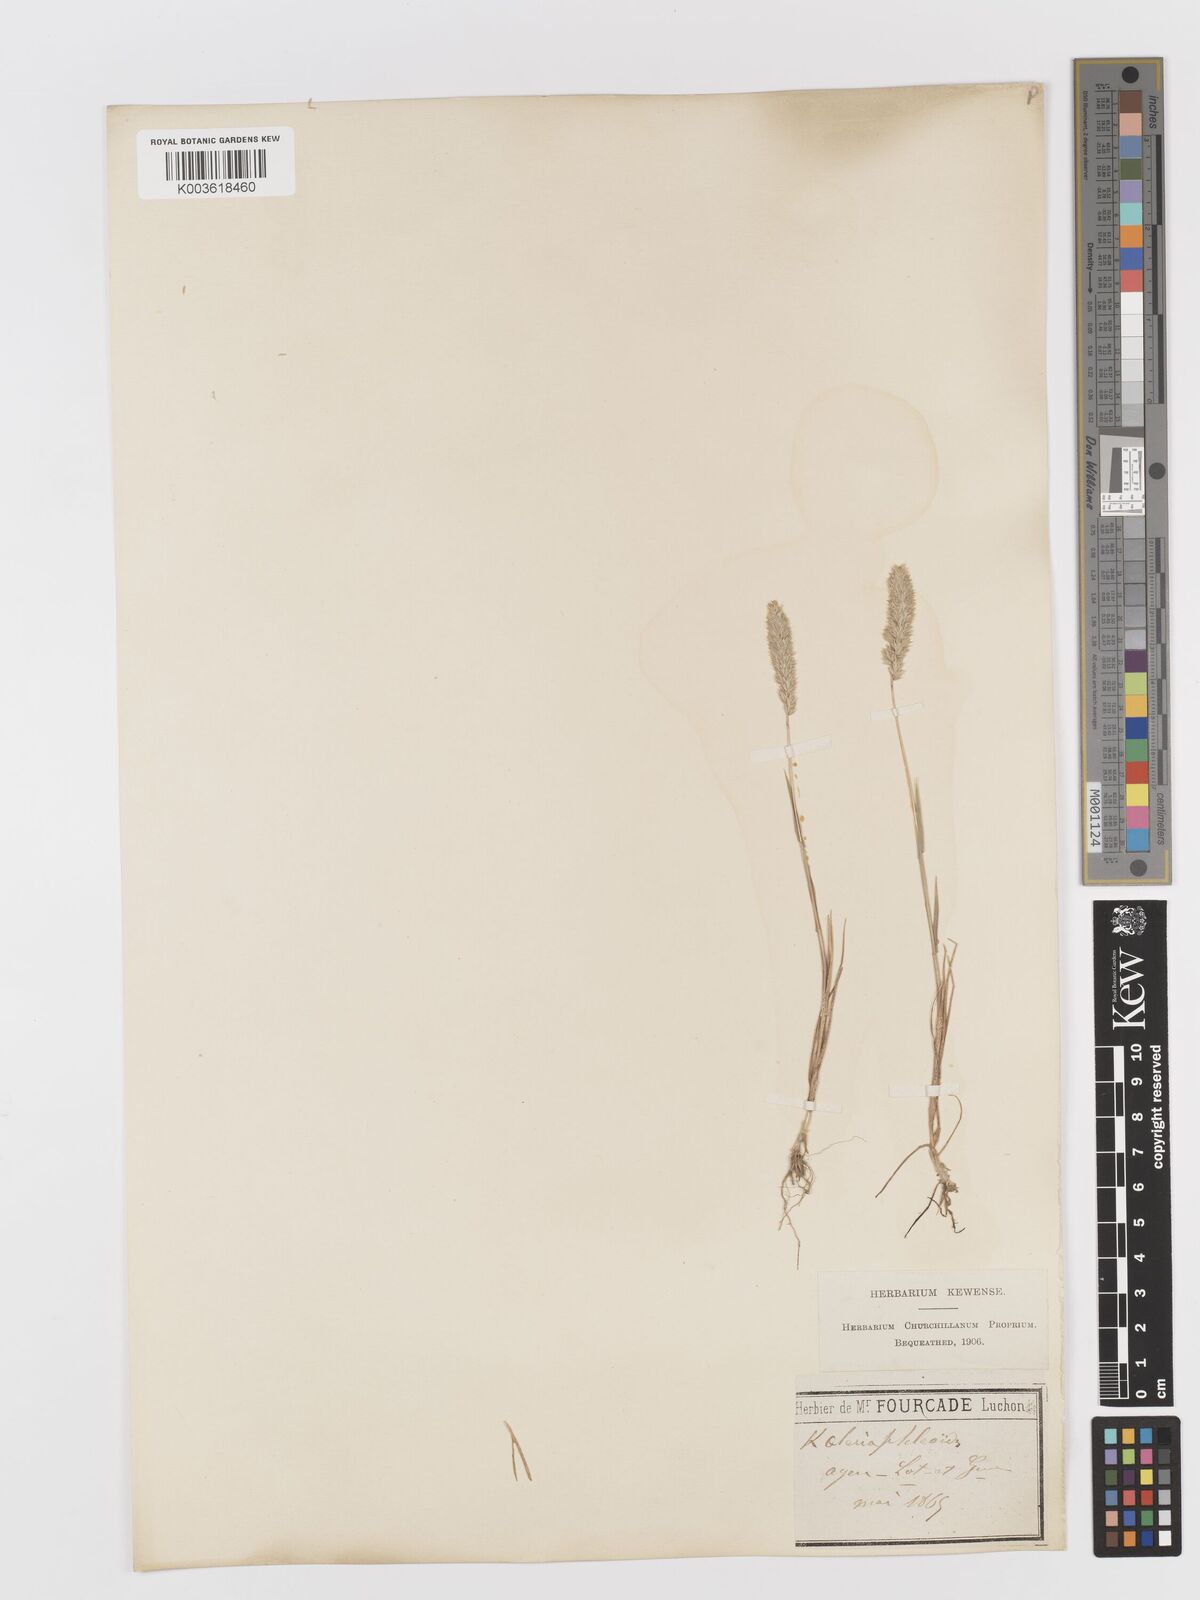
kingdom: Plantae
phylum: Tracheophyta
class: Liliopsida
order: Poales
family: Poaceae
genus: Rostraria
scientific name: Rostraria cristata
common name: Mediterranean hair-grass
